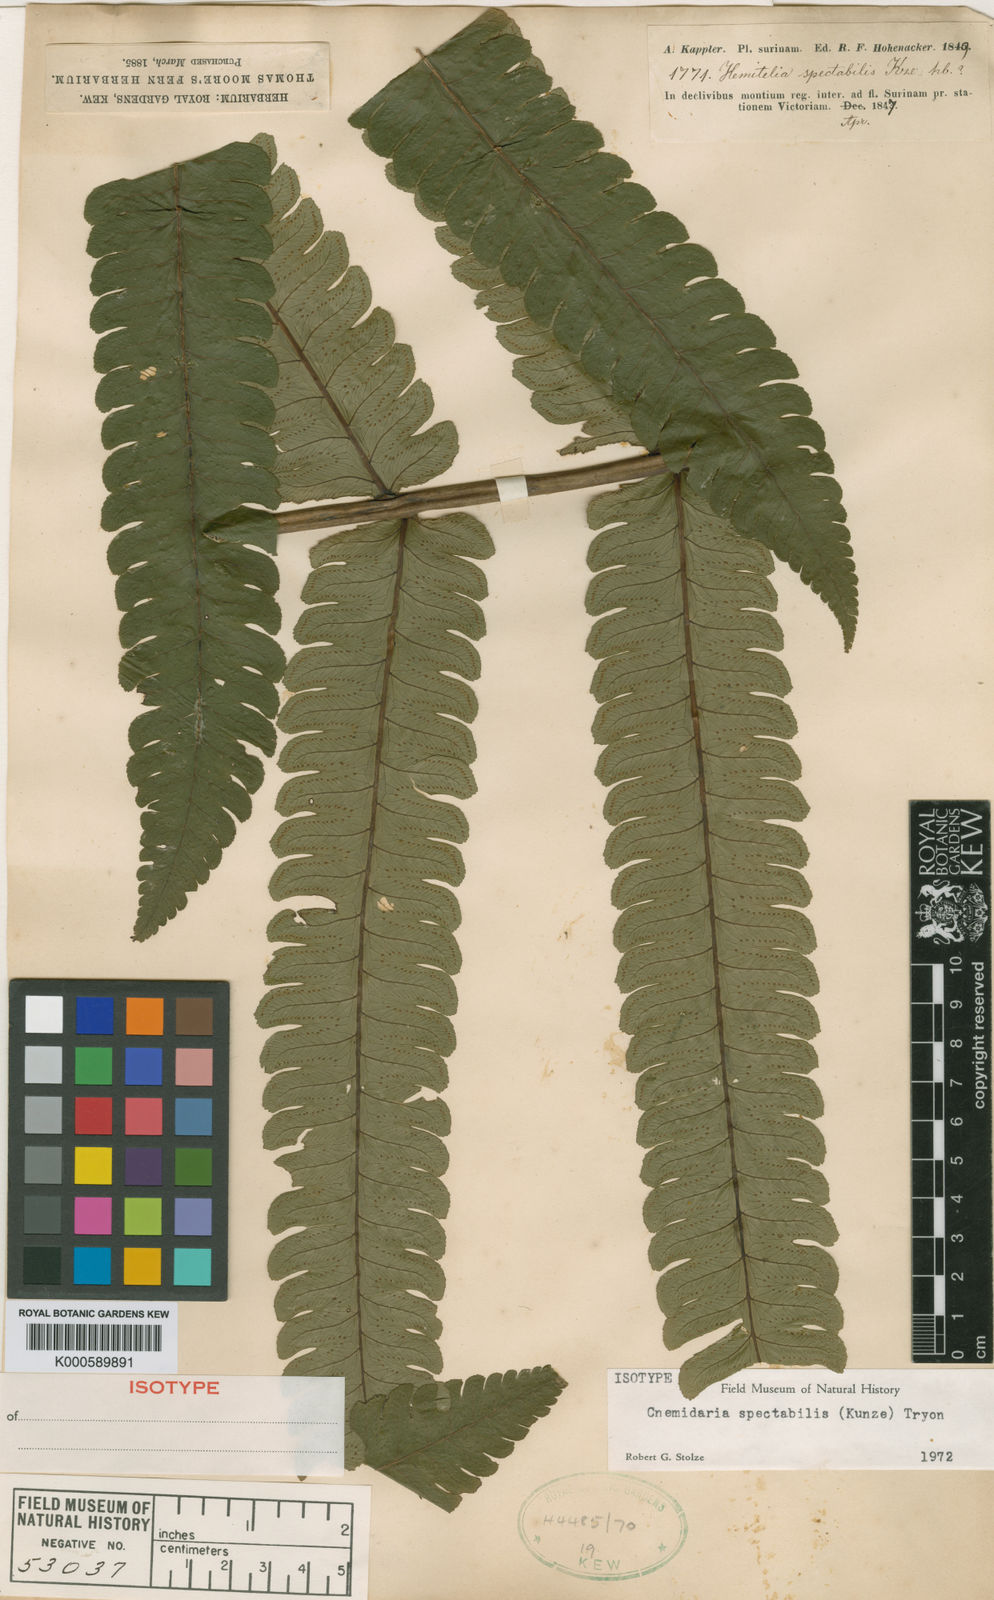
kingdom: Plantae
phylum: Tracheophyta
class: Polypodiopsida
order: Cyatheales
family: Cyatheaceae
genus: Cyathea
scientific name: Cyathea spectabilis
